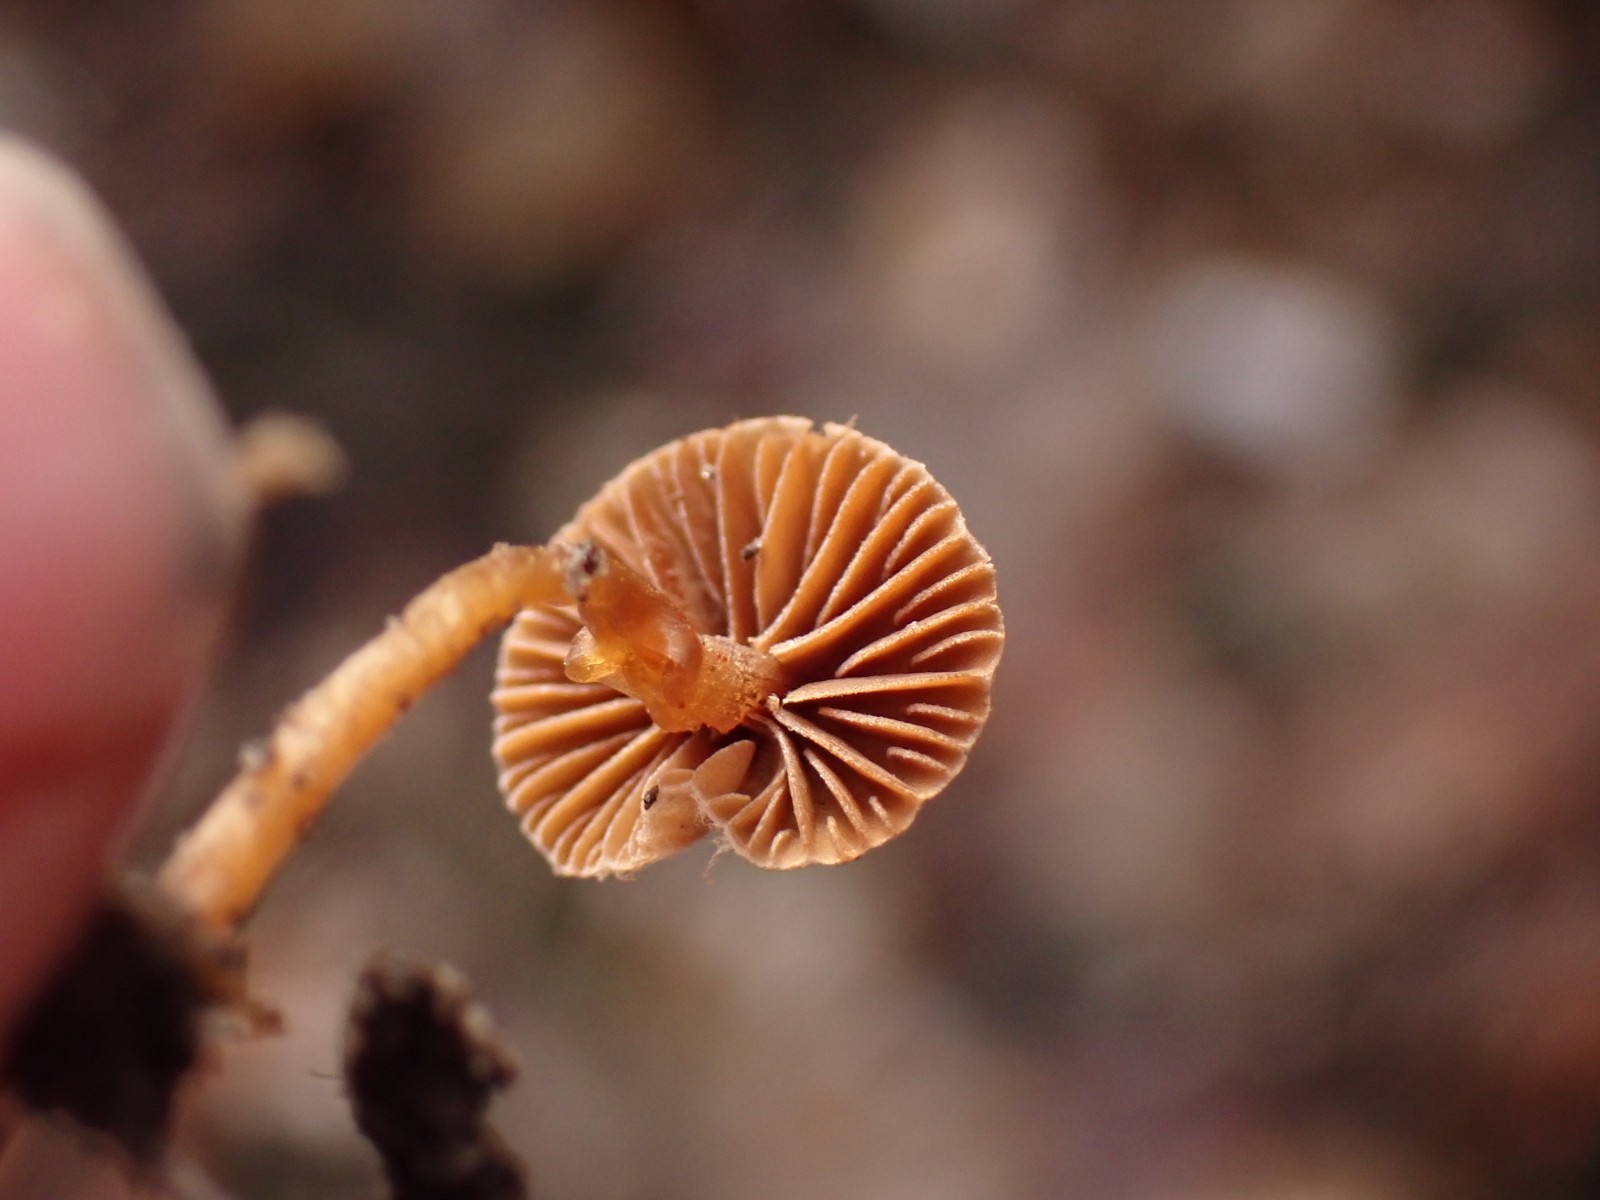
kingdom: Fungi
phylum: Basidiomycota
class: Agaricomycetes
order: Agaricales
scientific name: Agaricales
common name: champignonordenen
